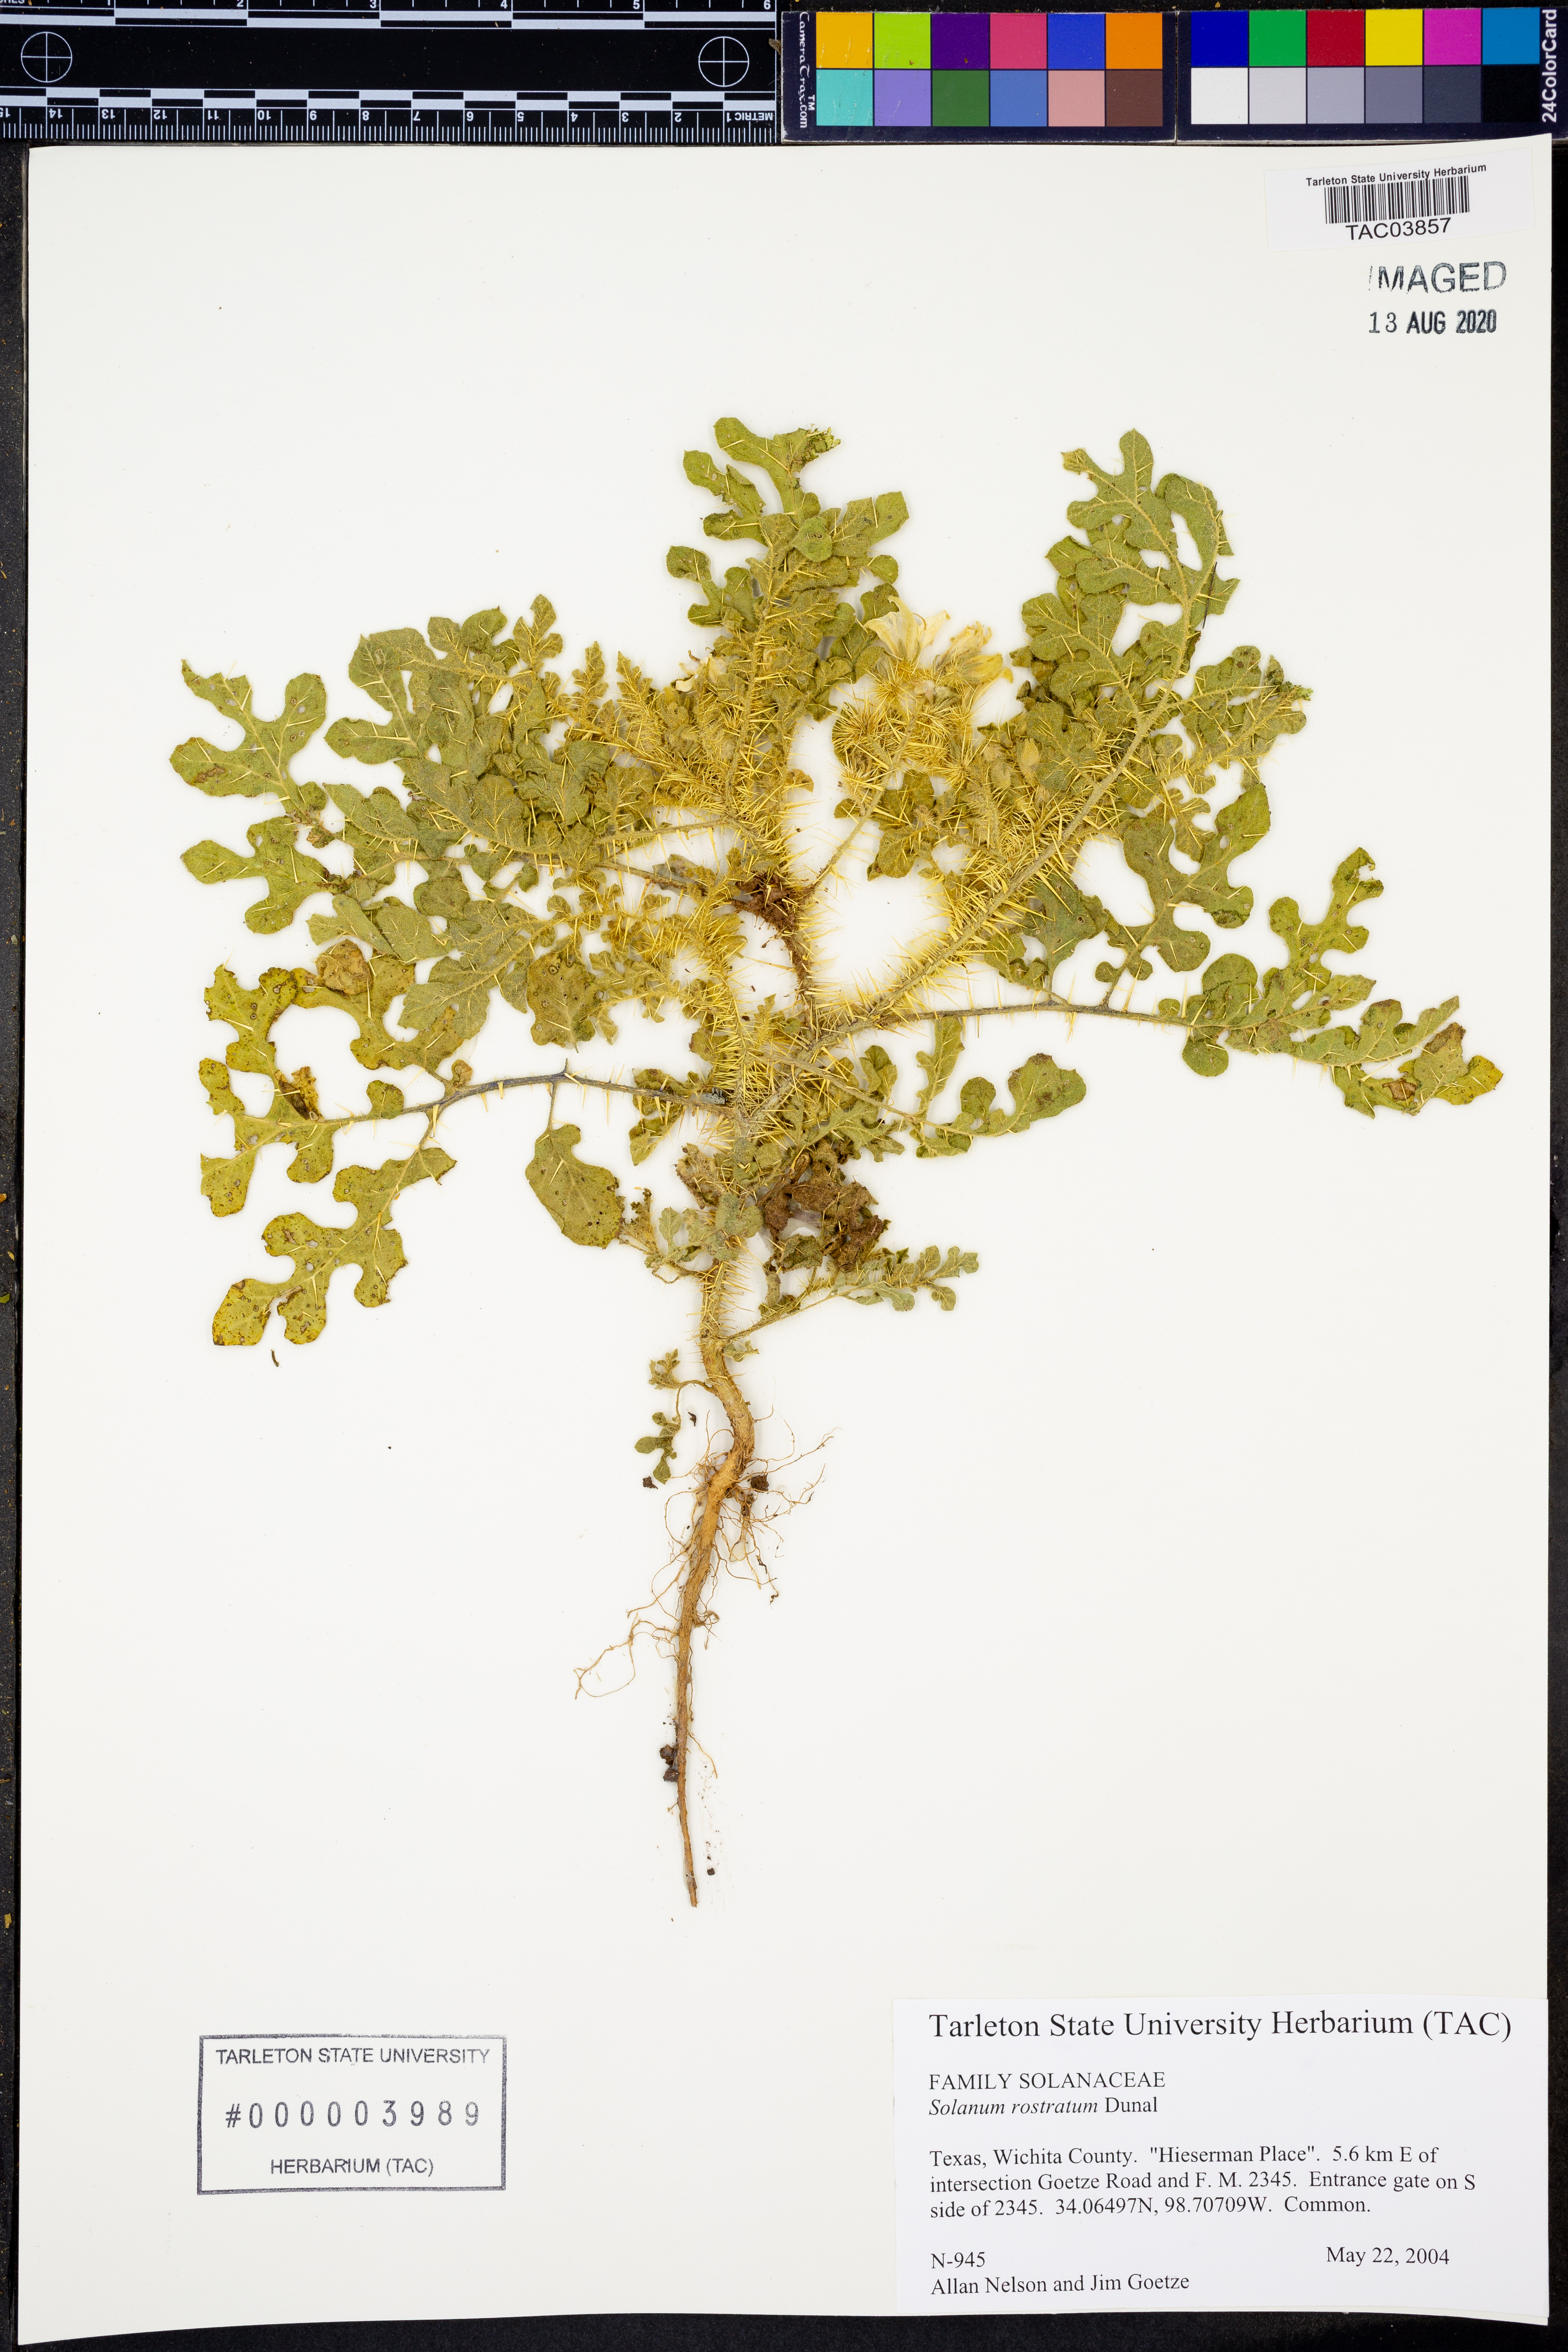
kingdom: Plantae
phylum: Tracheophyta
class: Magnoliopsida
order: Solanales
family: Solanaceae
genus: Solanum
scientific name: Solanum angustifolium
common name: Buffalobur nightshade
